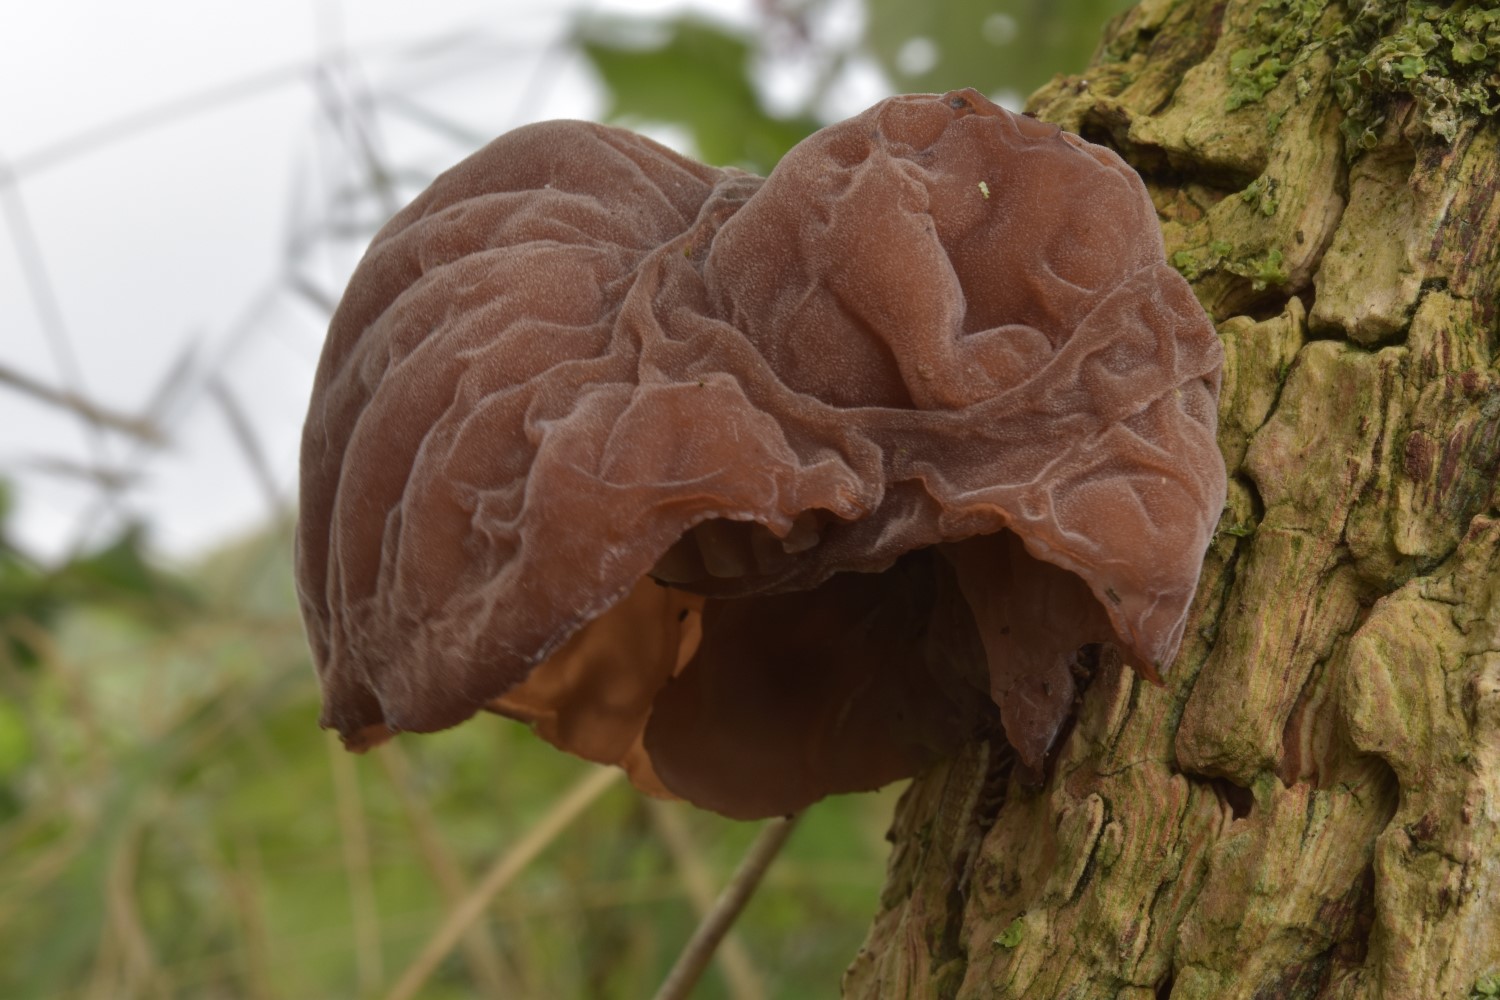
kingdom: Fungi
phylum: Basidiomycota
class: Agaricomycetes
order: Auriculariales
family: Auriculariaceae
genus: Auricularia
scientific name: Auricularia auricula-judae
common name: almindelig judasøre
